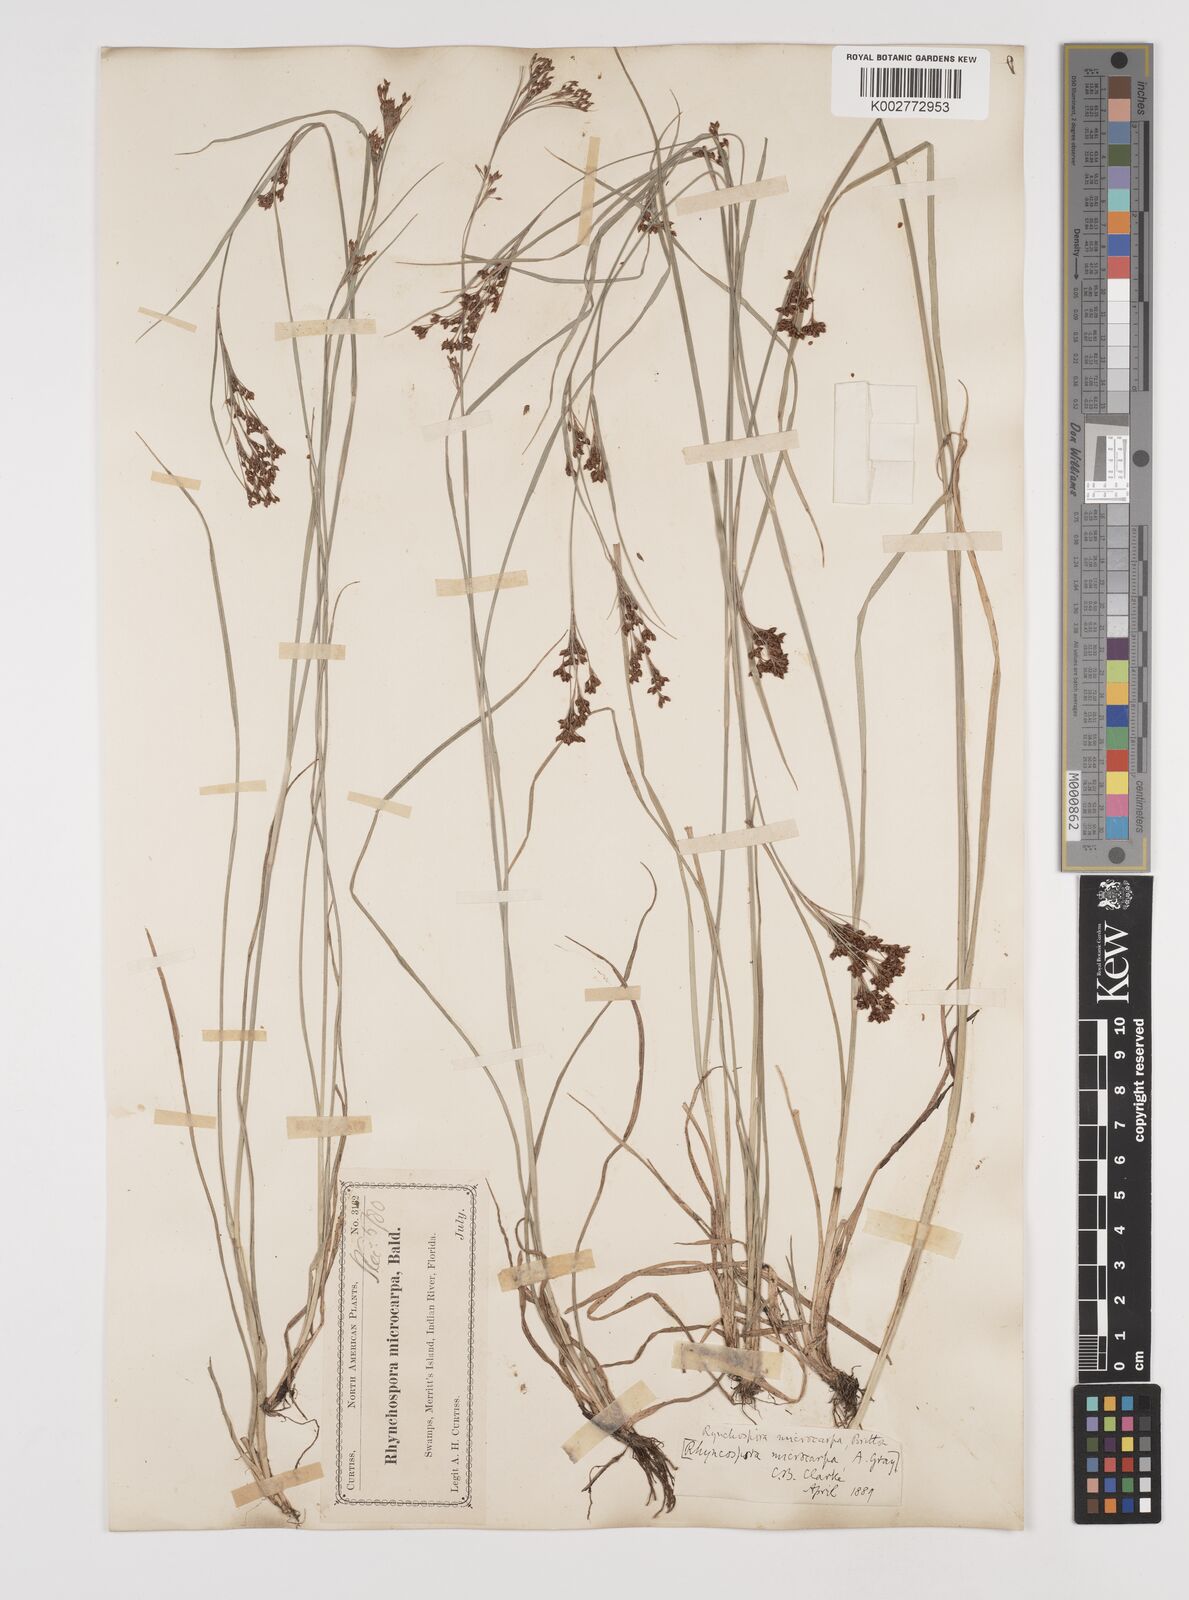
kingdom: Plantae
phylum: Tracheophyta
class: Liliopsida
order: Poales
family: Cyperaceae
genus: Rhynchospora
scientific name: Rhynchospora microcarpa
